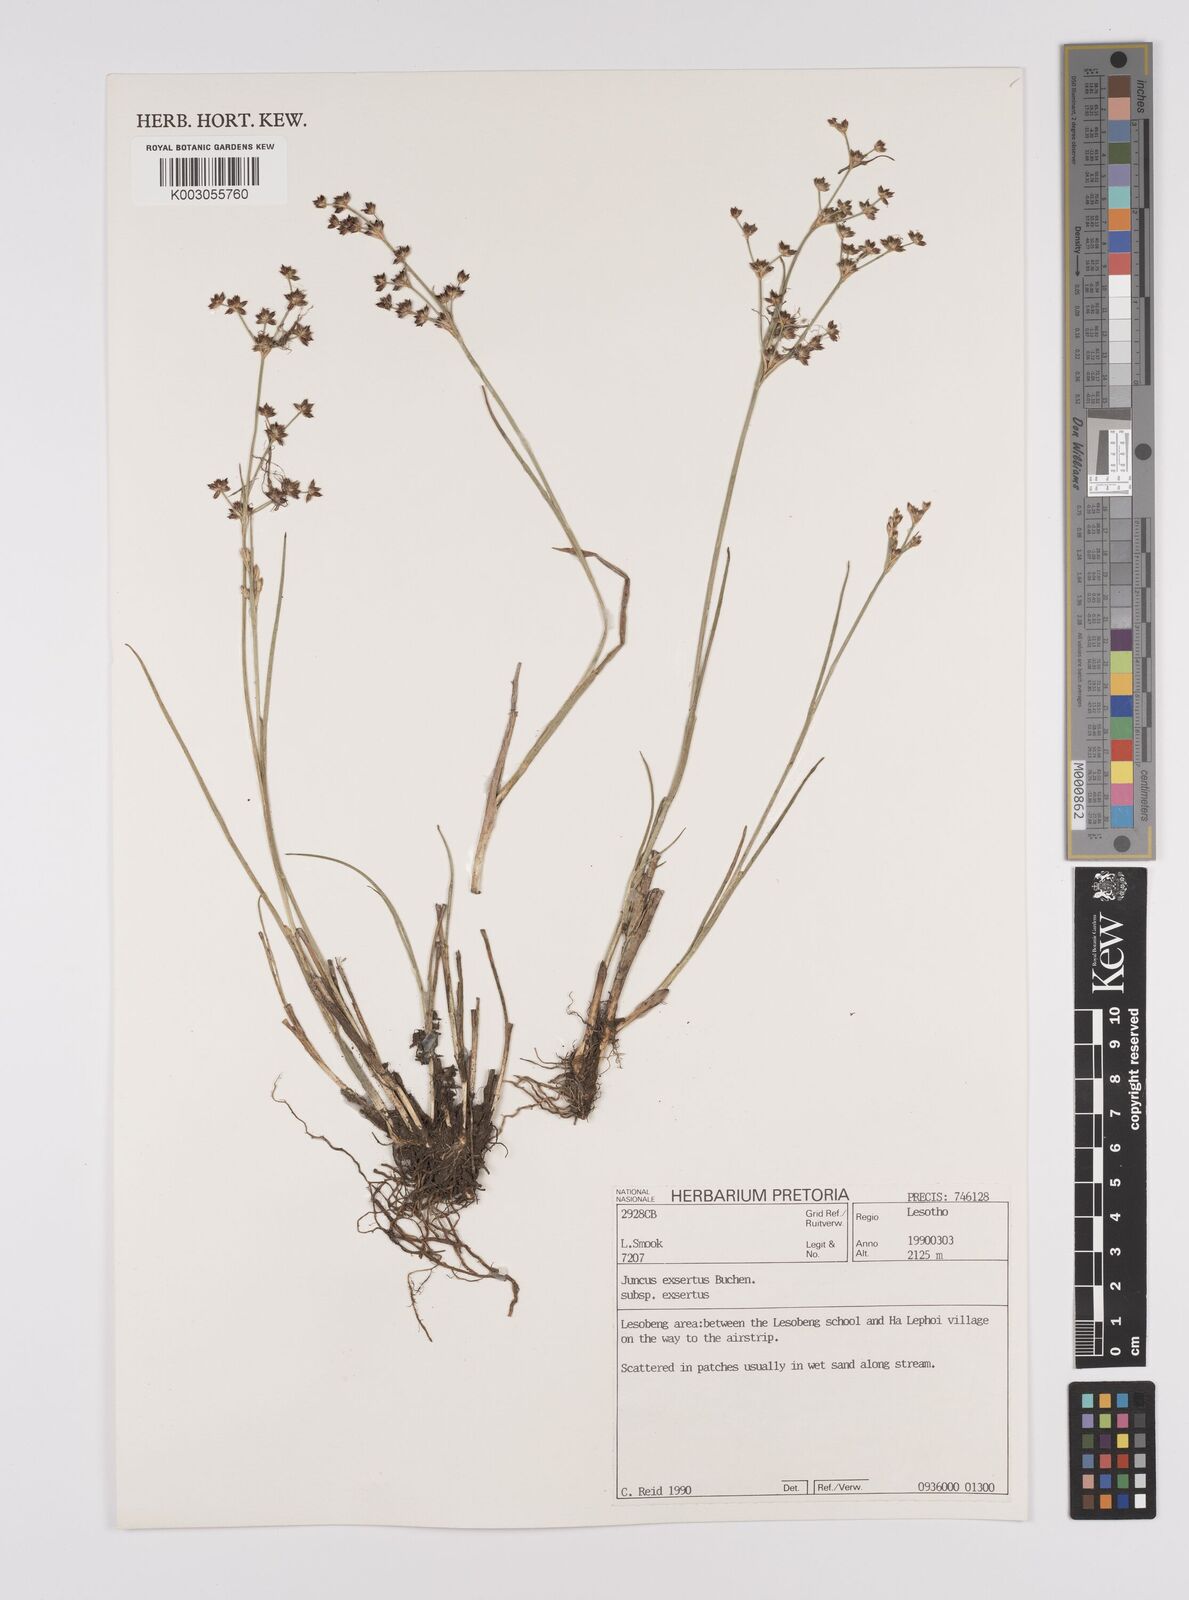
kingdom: Plantae
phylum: Tracheophyta
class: Liliopsida
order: Poales
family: Juncaceae
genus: Juncus
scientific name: Juncus exsertus
